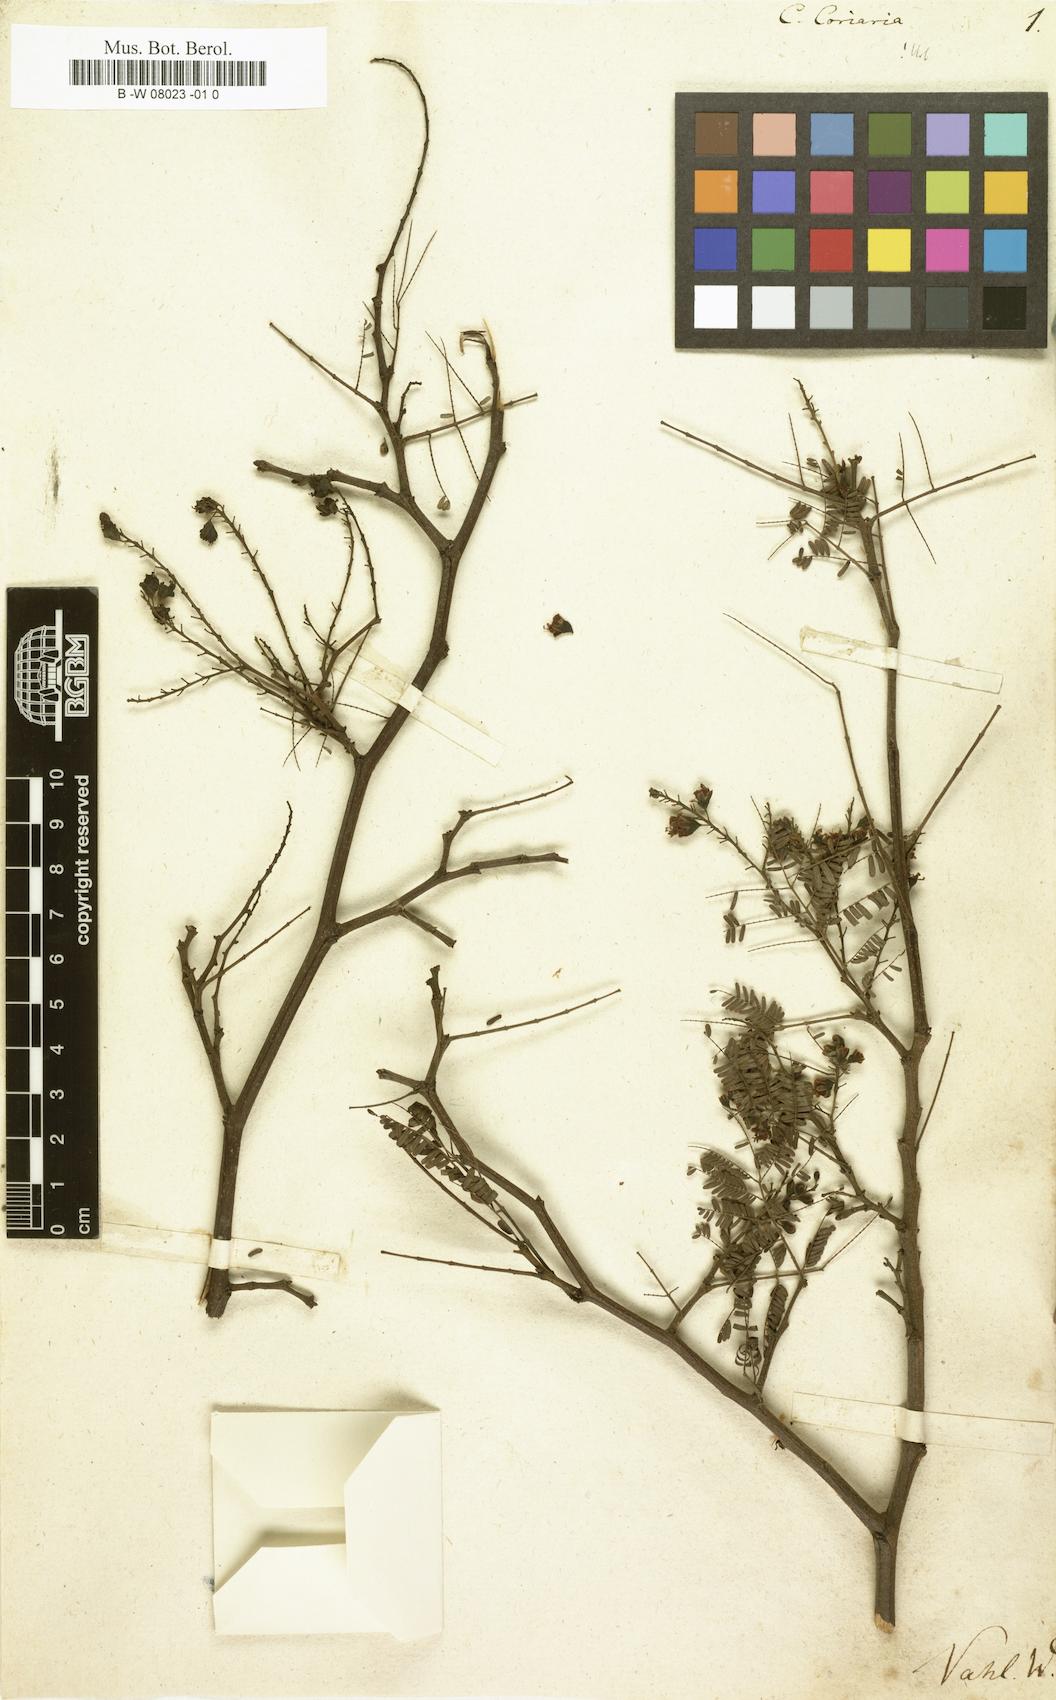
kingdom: Plantae
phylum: Tracheophyta
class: Magnoliopsida
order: Fabales
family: Fabaceae
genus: Caesalpinia
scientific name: Caesalpinia coriaria
